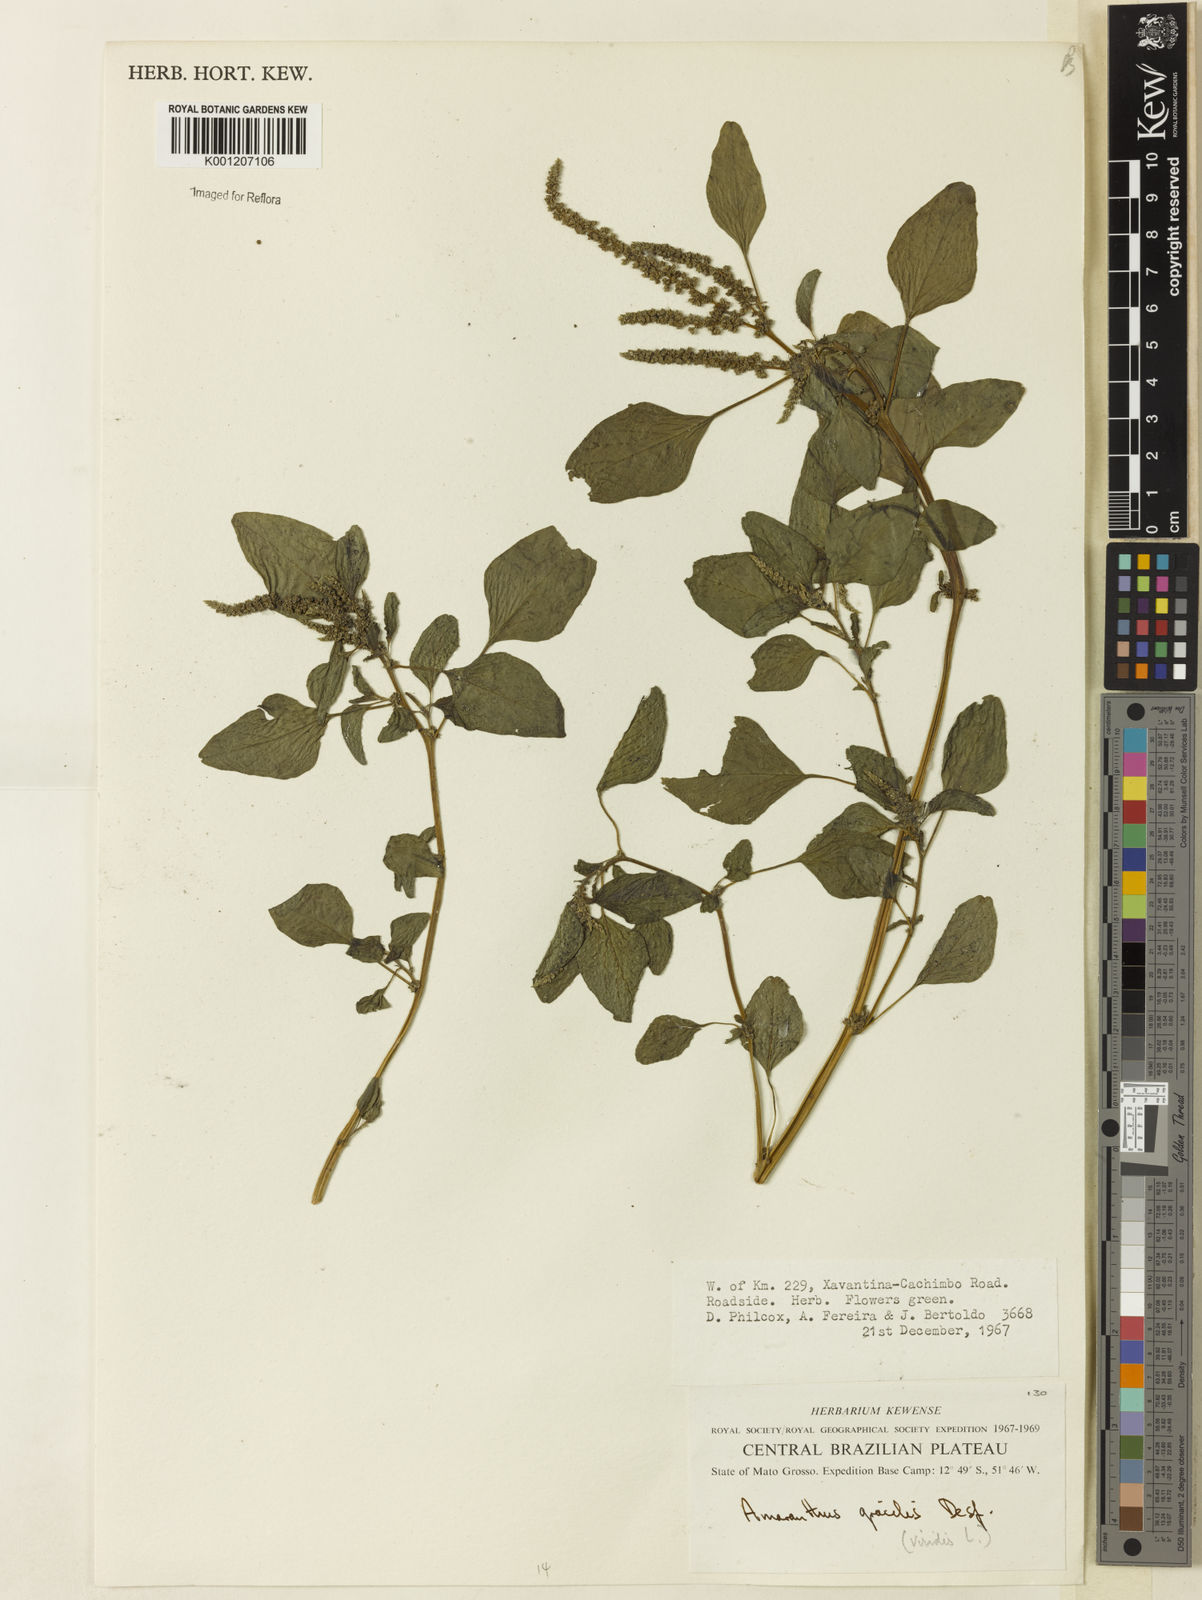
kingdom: Plantae
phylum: Tracheophyta
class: Magnoliopsida
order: Caryophyllales
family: Amaranthaceae
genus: Amaranthus
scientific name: Amaranthus viridis
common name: Slender amaranth
